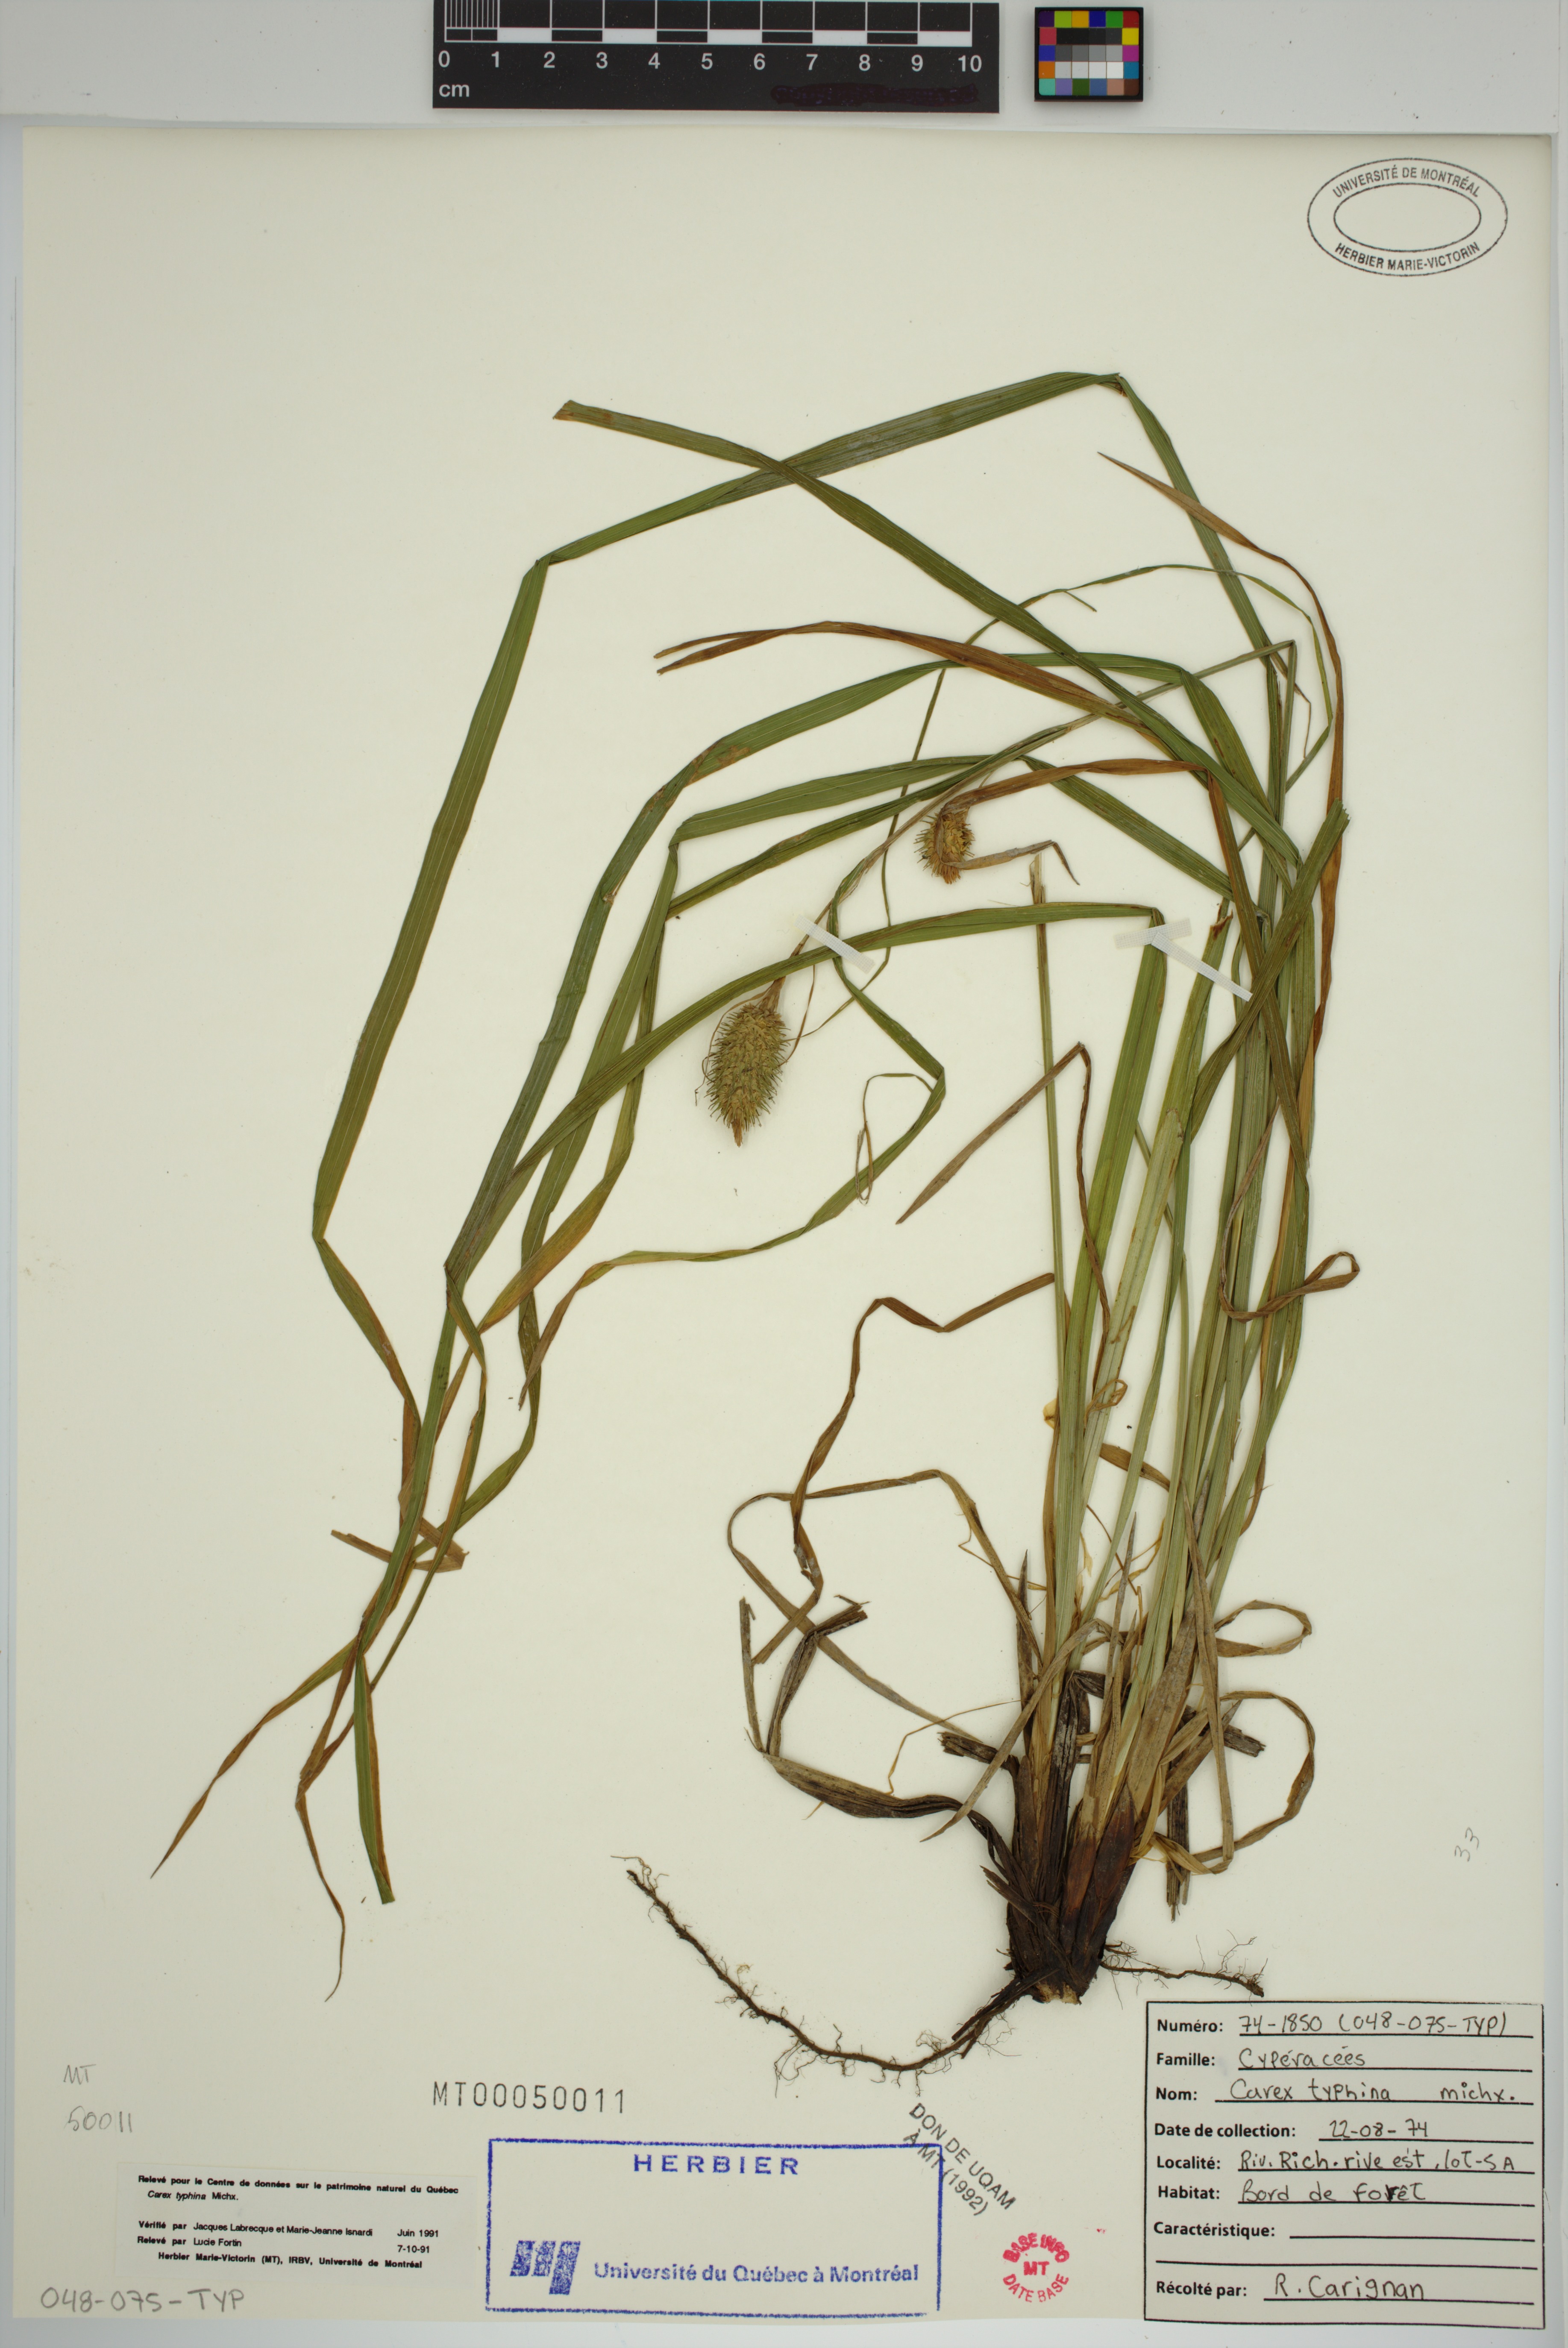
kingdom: Plantae
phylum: Tracheophyta
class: Liliopsida
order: Poales
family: Cyperaceae
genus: Carex
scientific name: Carex typhina
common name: Cattail sedge
